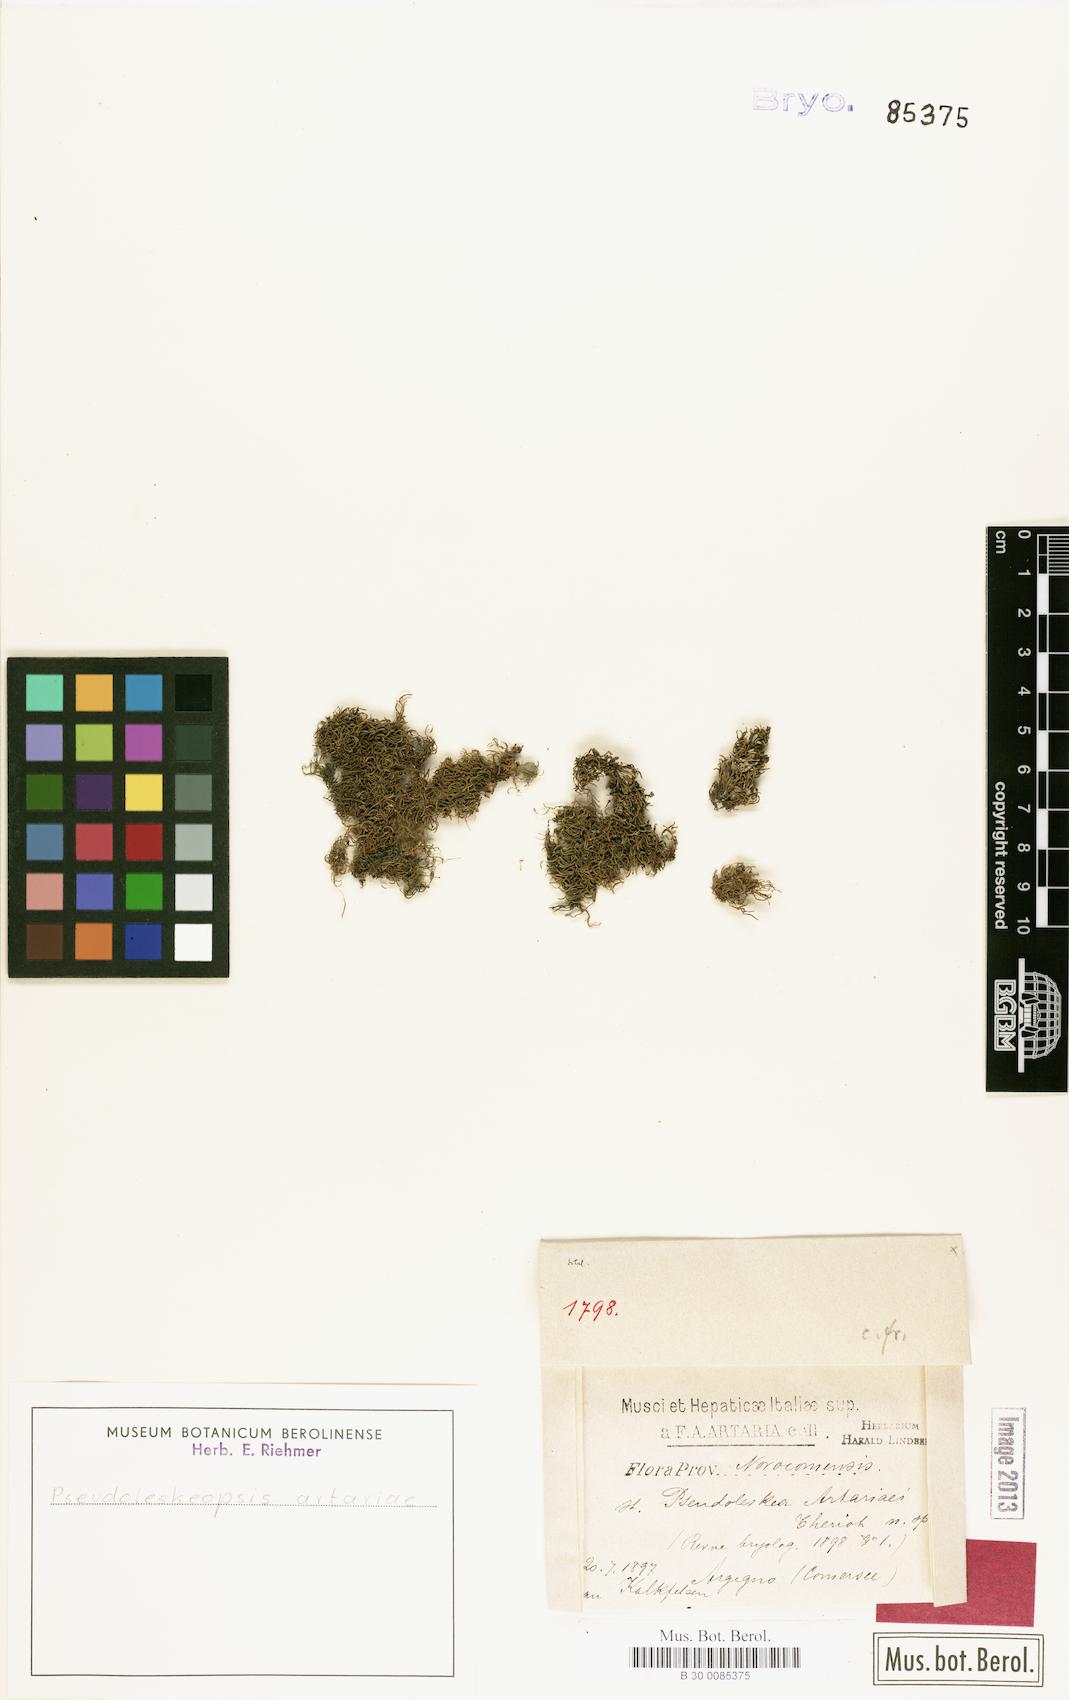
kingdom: Plantae
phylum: Bryophyta
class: Bryopsida
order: Hypnales
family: Leskeaceae
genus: Pseudoleskeopsis
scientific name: Pseudoleskeopsis artariae
